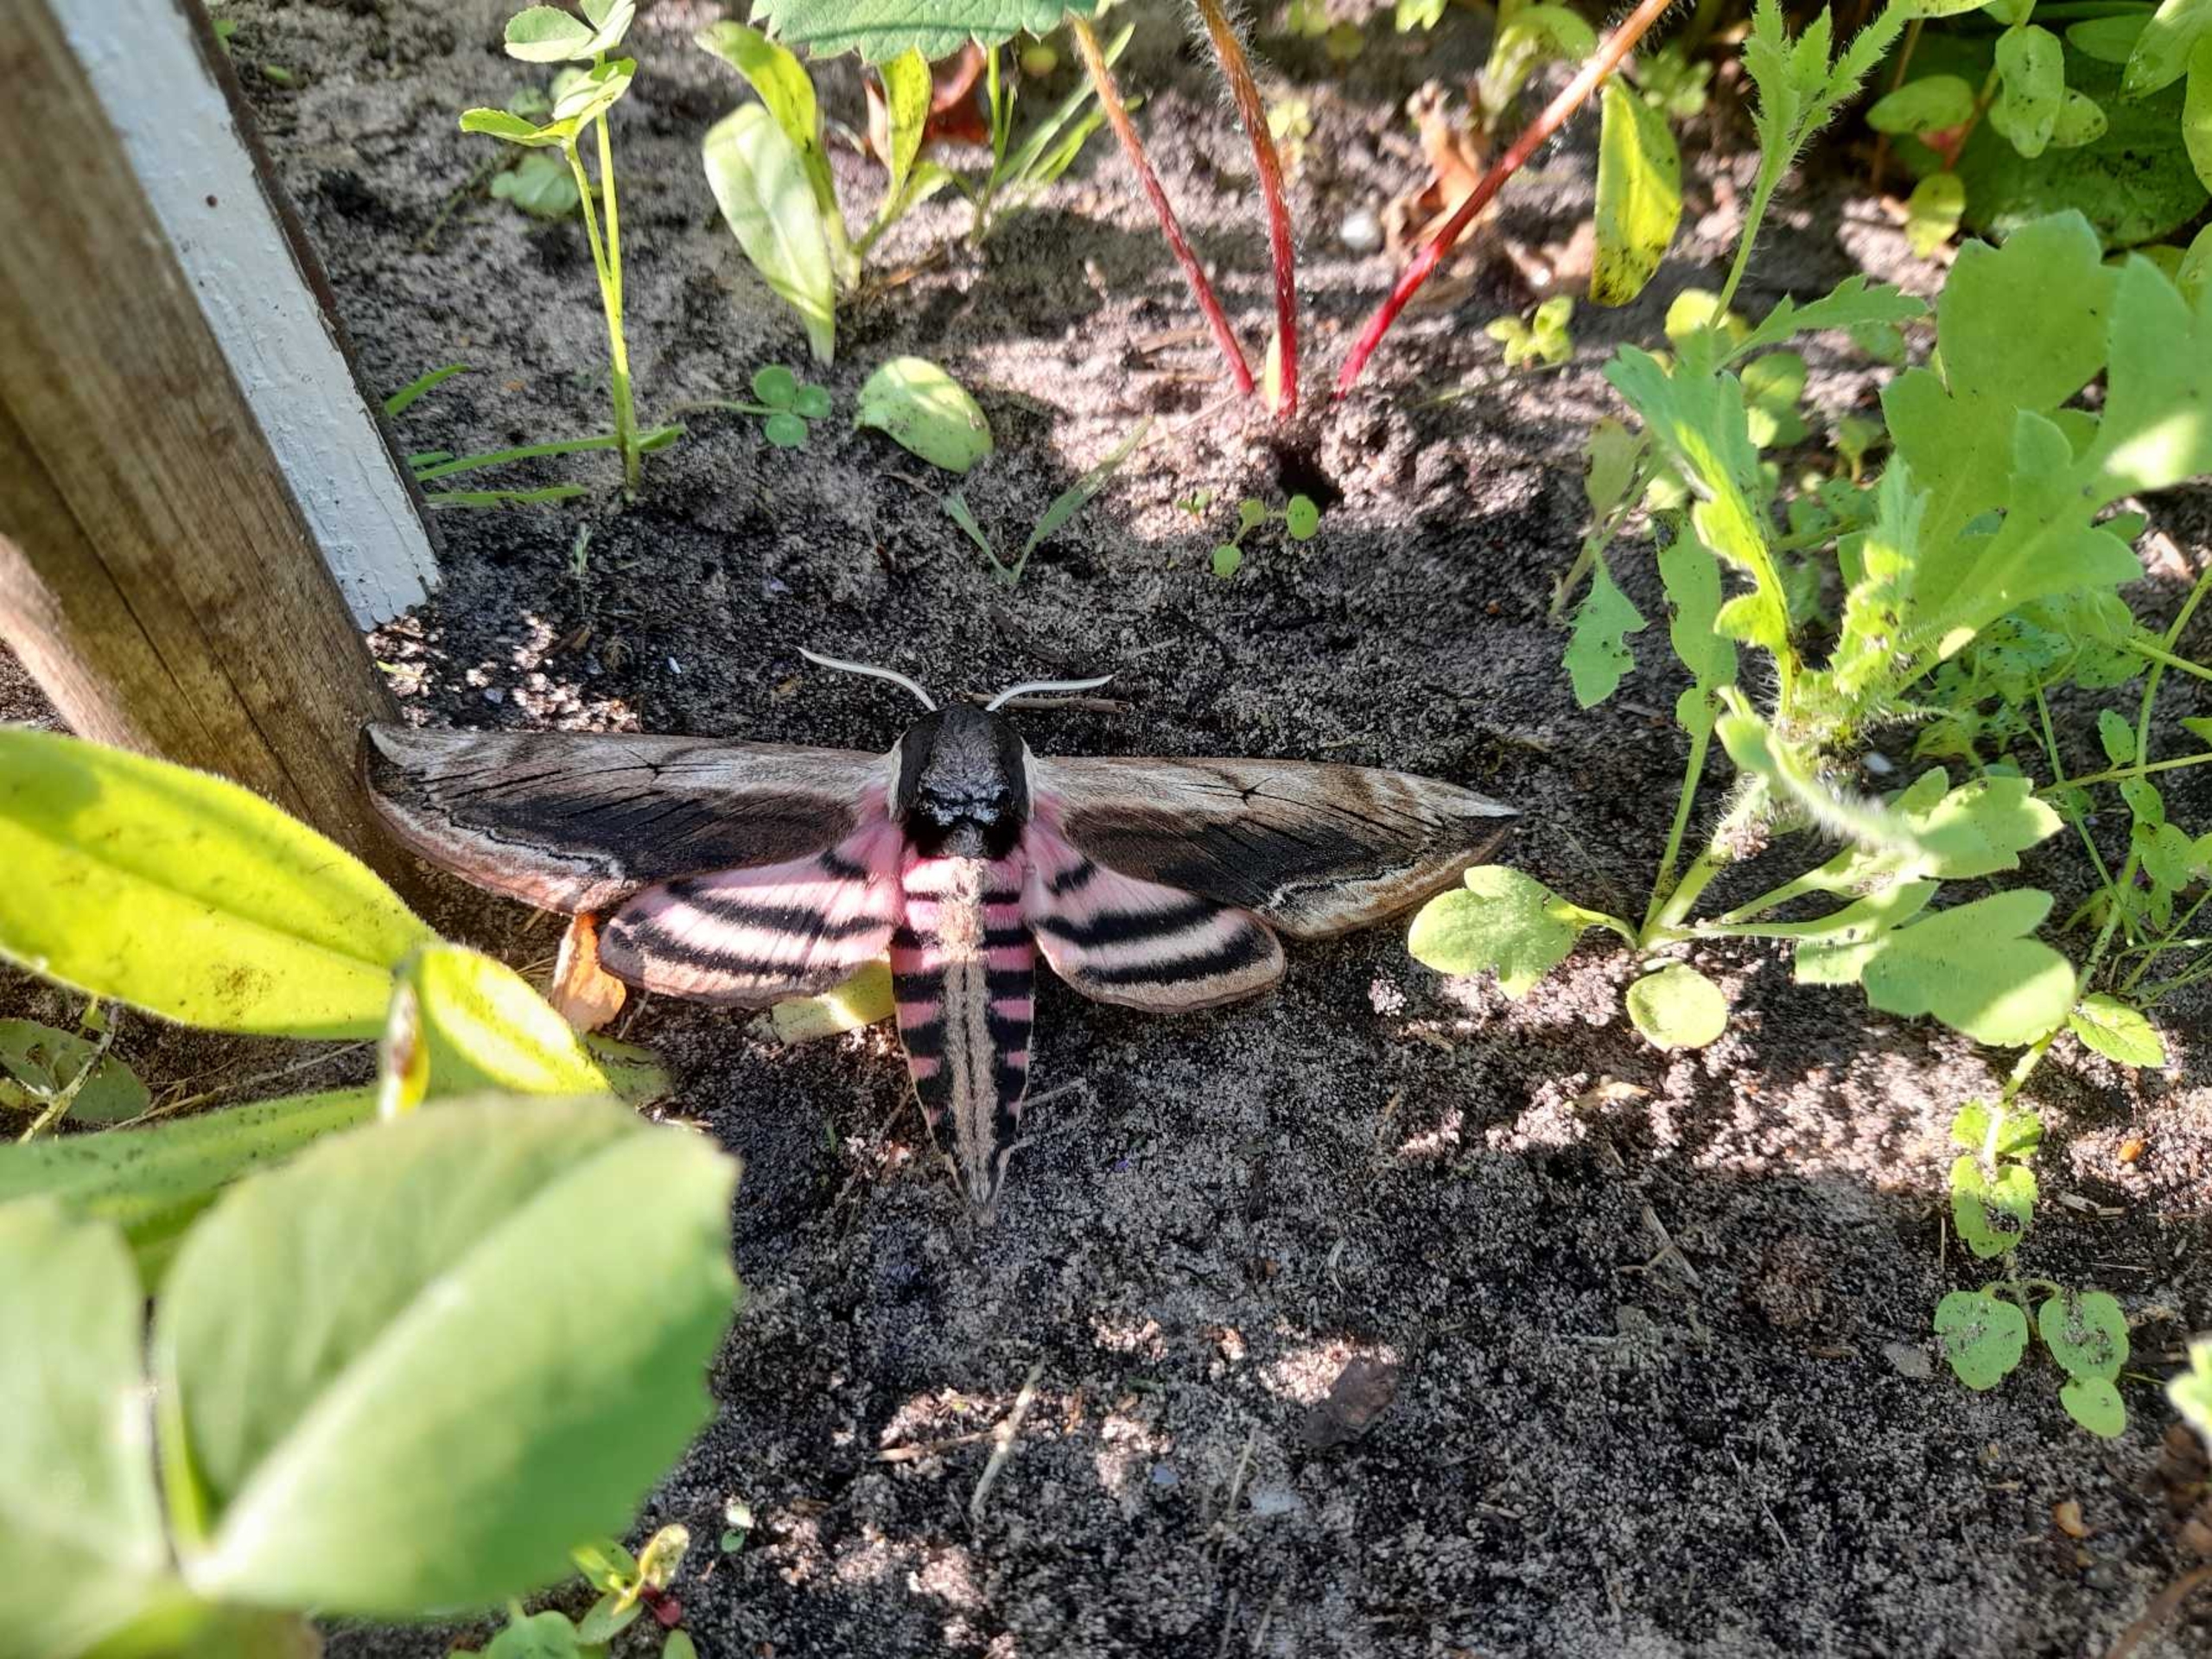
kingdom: Animalia
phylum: Arthropoda
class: Insecta
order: Lepidoptera
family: Sphingidae
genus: Sphinx
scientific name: Sphinx ligustri
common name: Ligustersværmer
